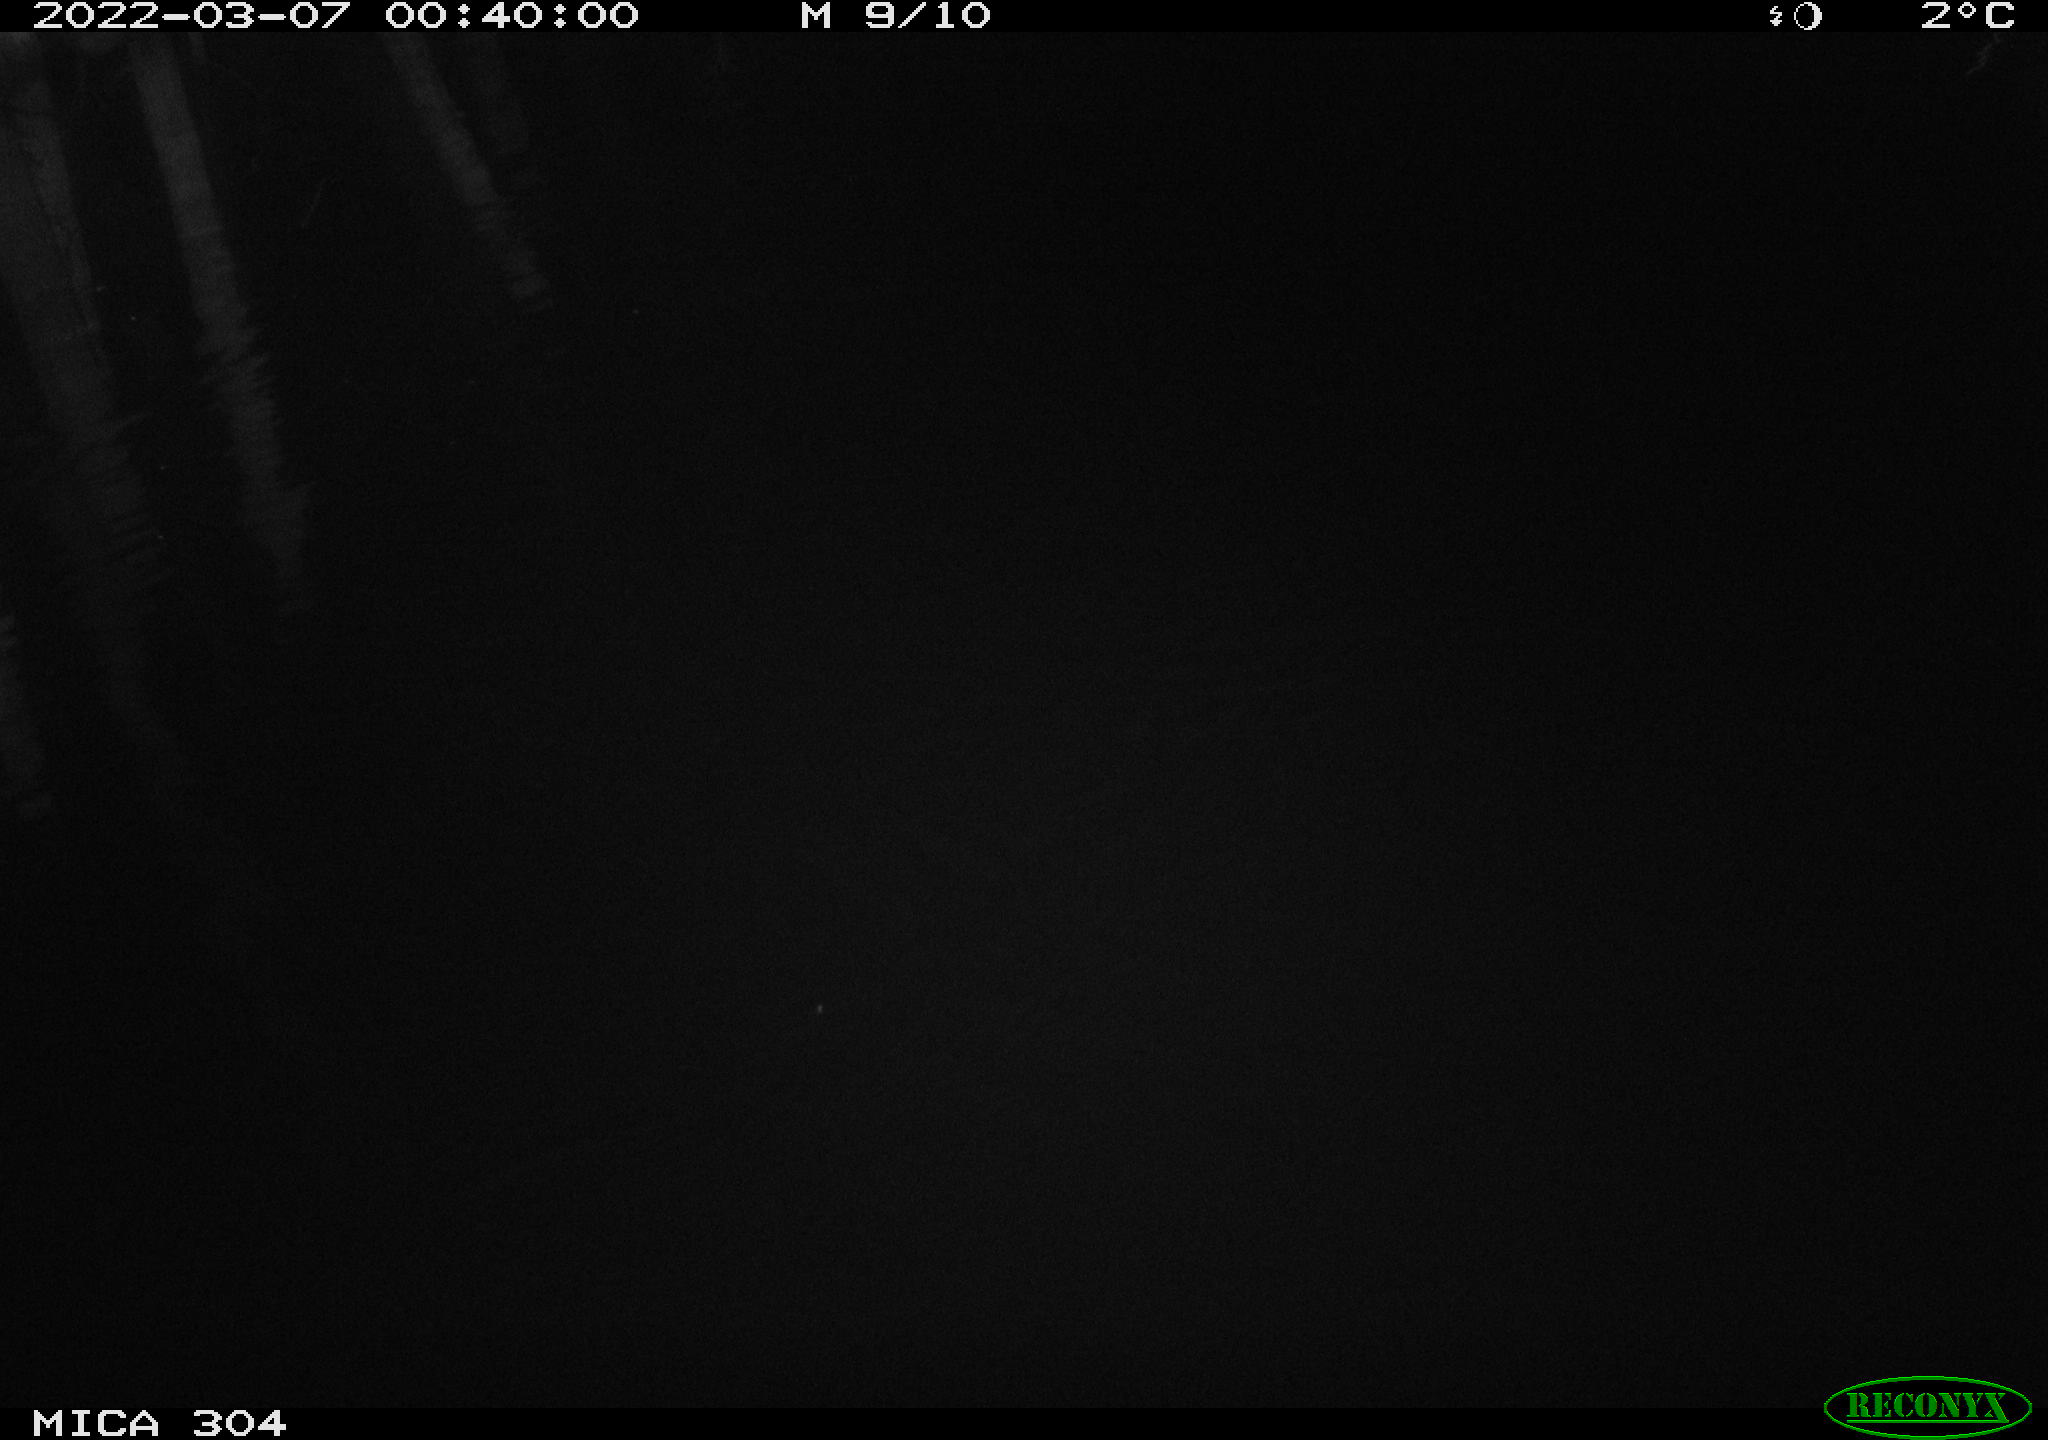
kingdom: Animalia
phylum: Chordata
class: Mammalia
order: Rodentia
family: Muridae
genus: Rattus
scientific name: Rattus norvegicus
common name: Brown rat
